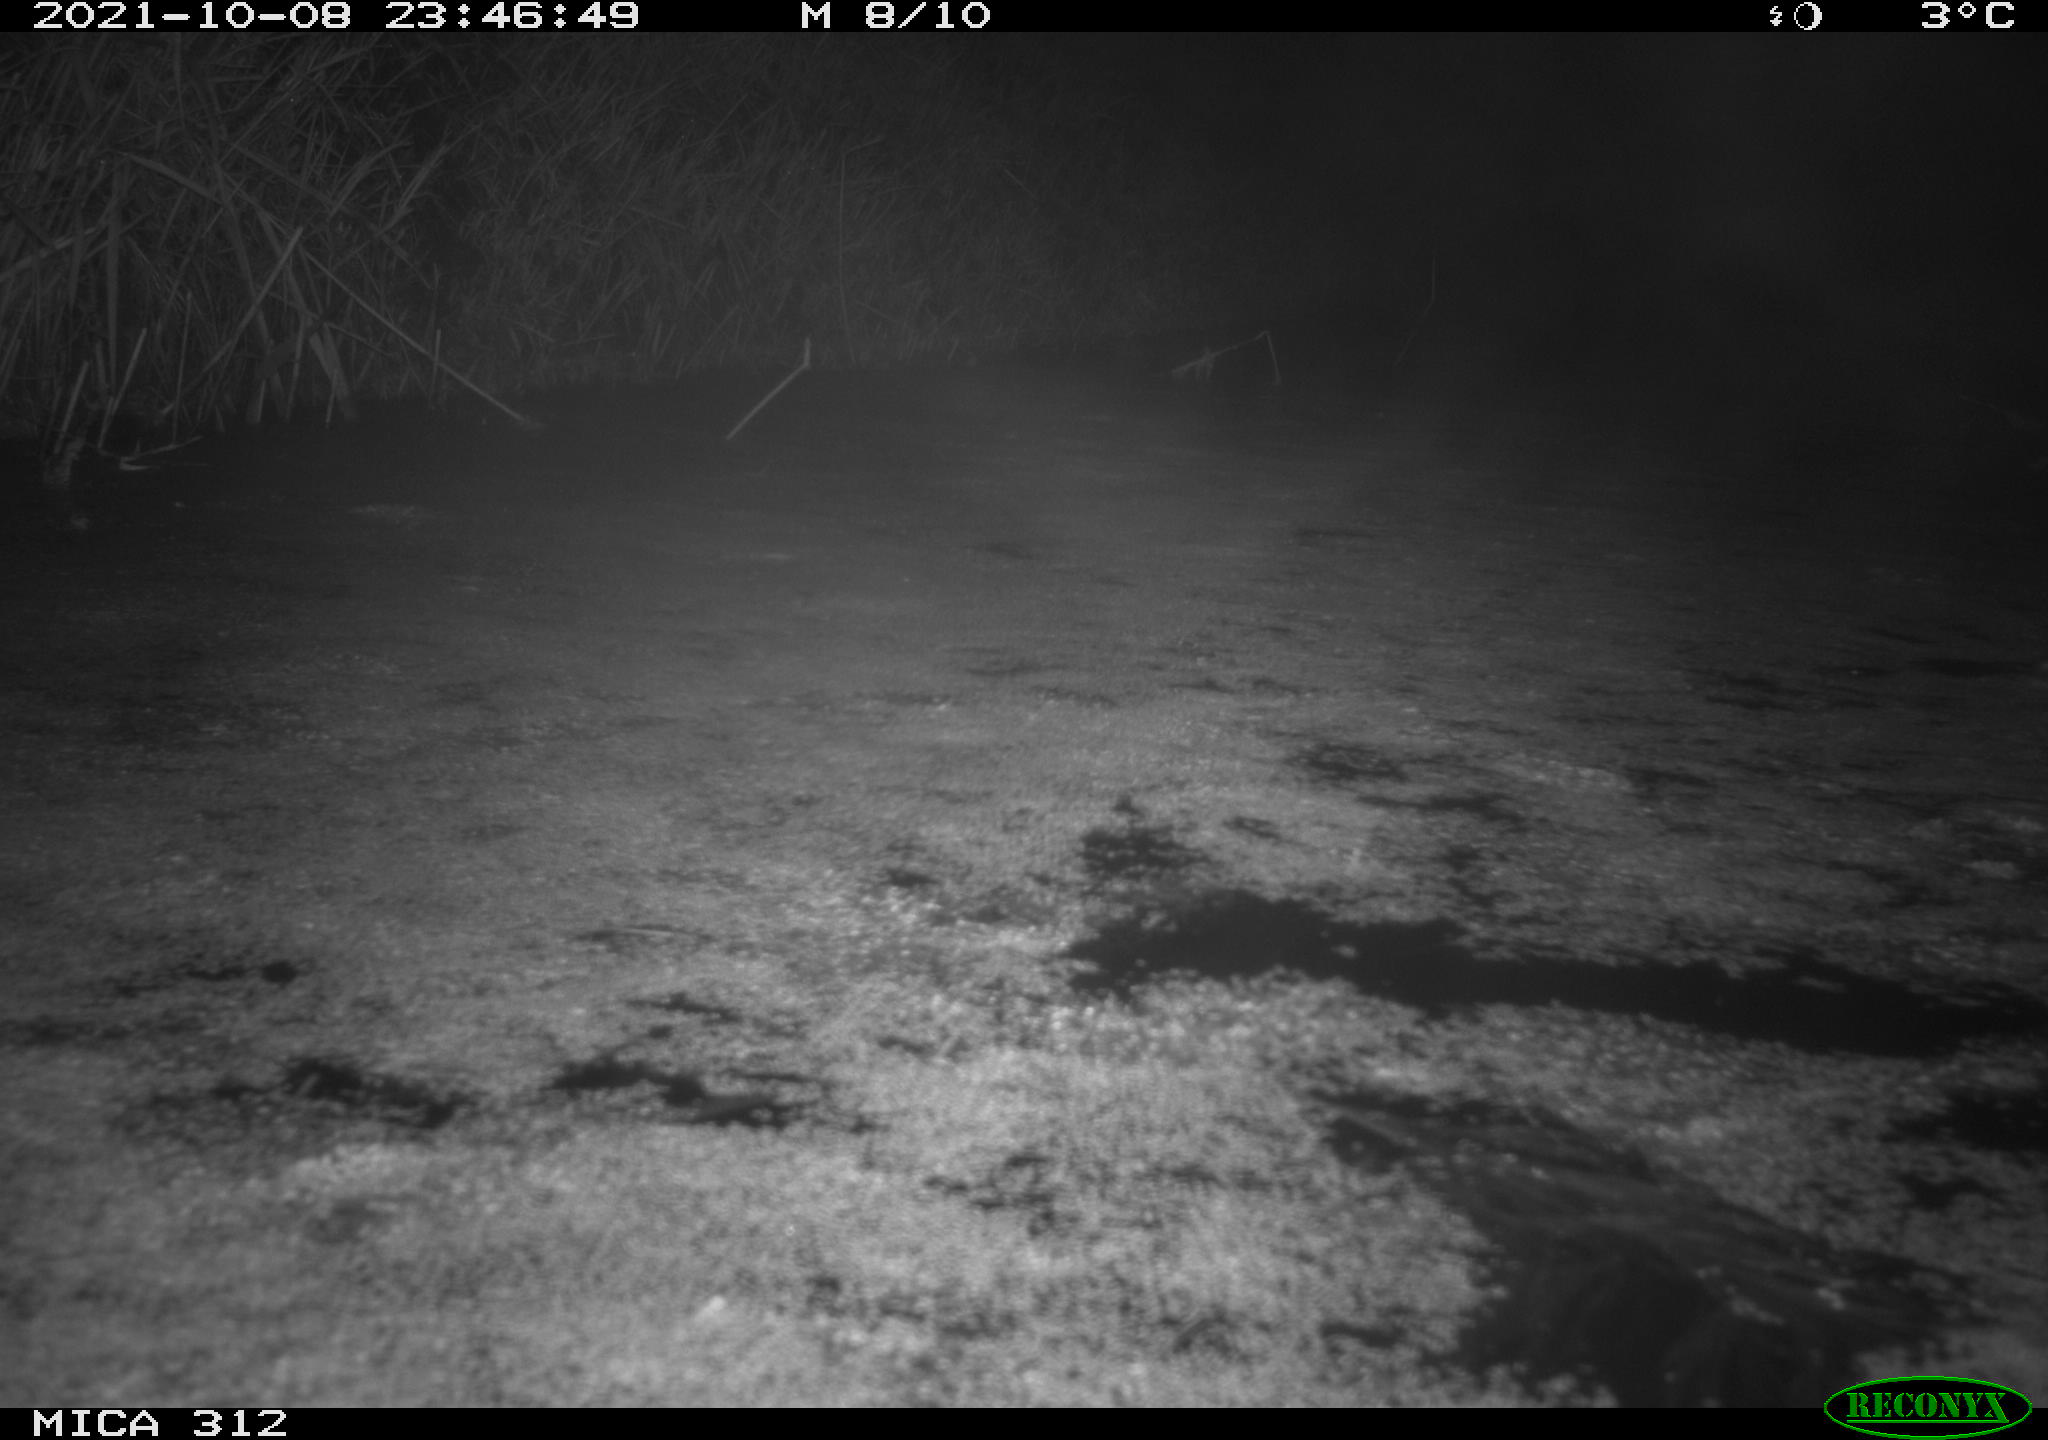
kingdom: Animalia
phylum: Chordata
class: Mammalia
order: Rodentia
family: Muridae
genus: Rattus
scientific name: Rattus norvegicus
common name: Brown rat
